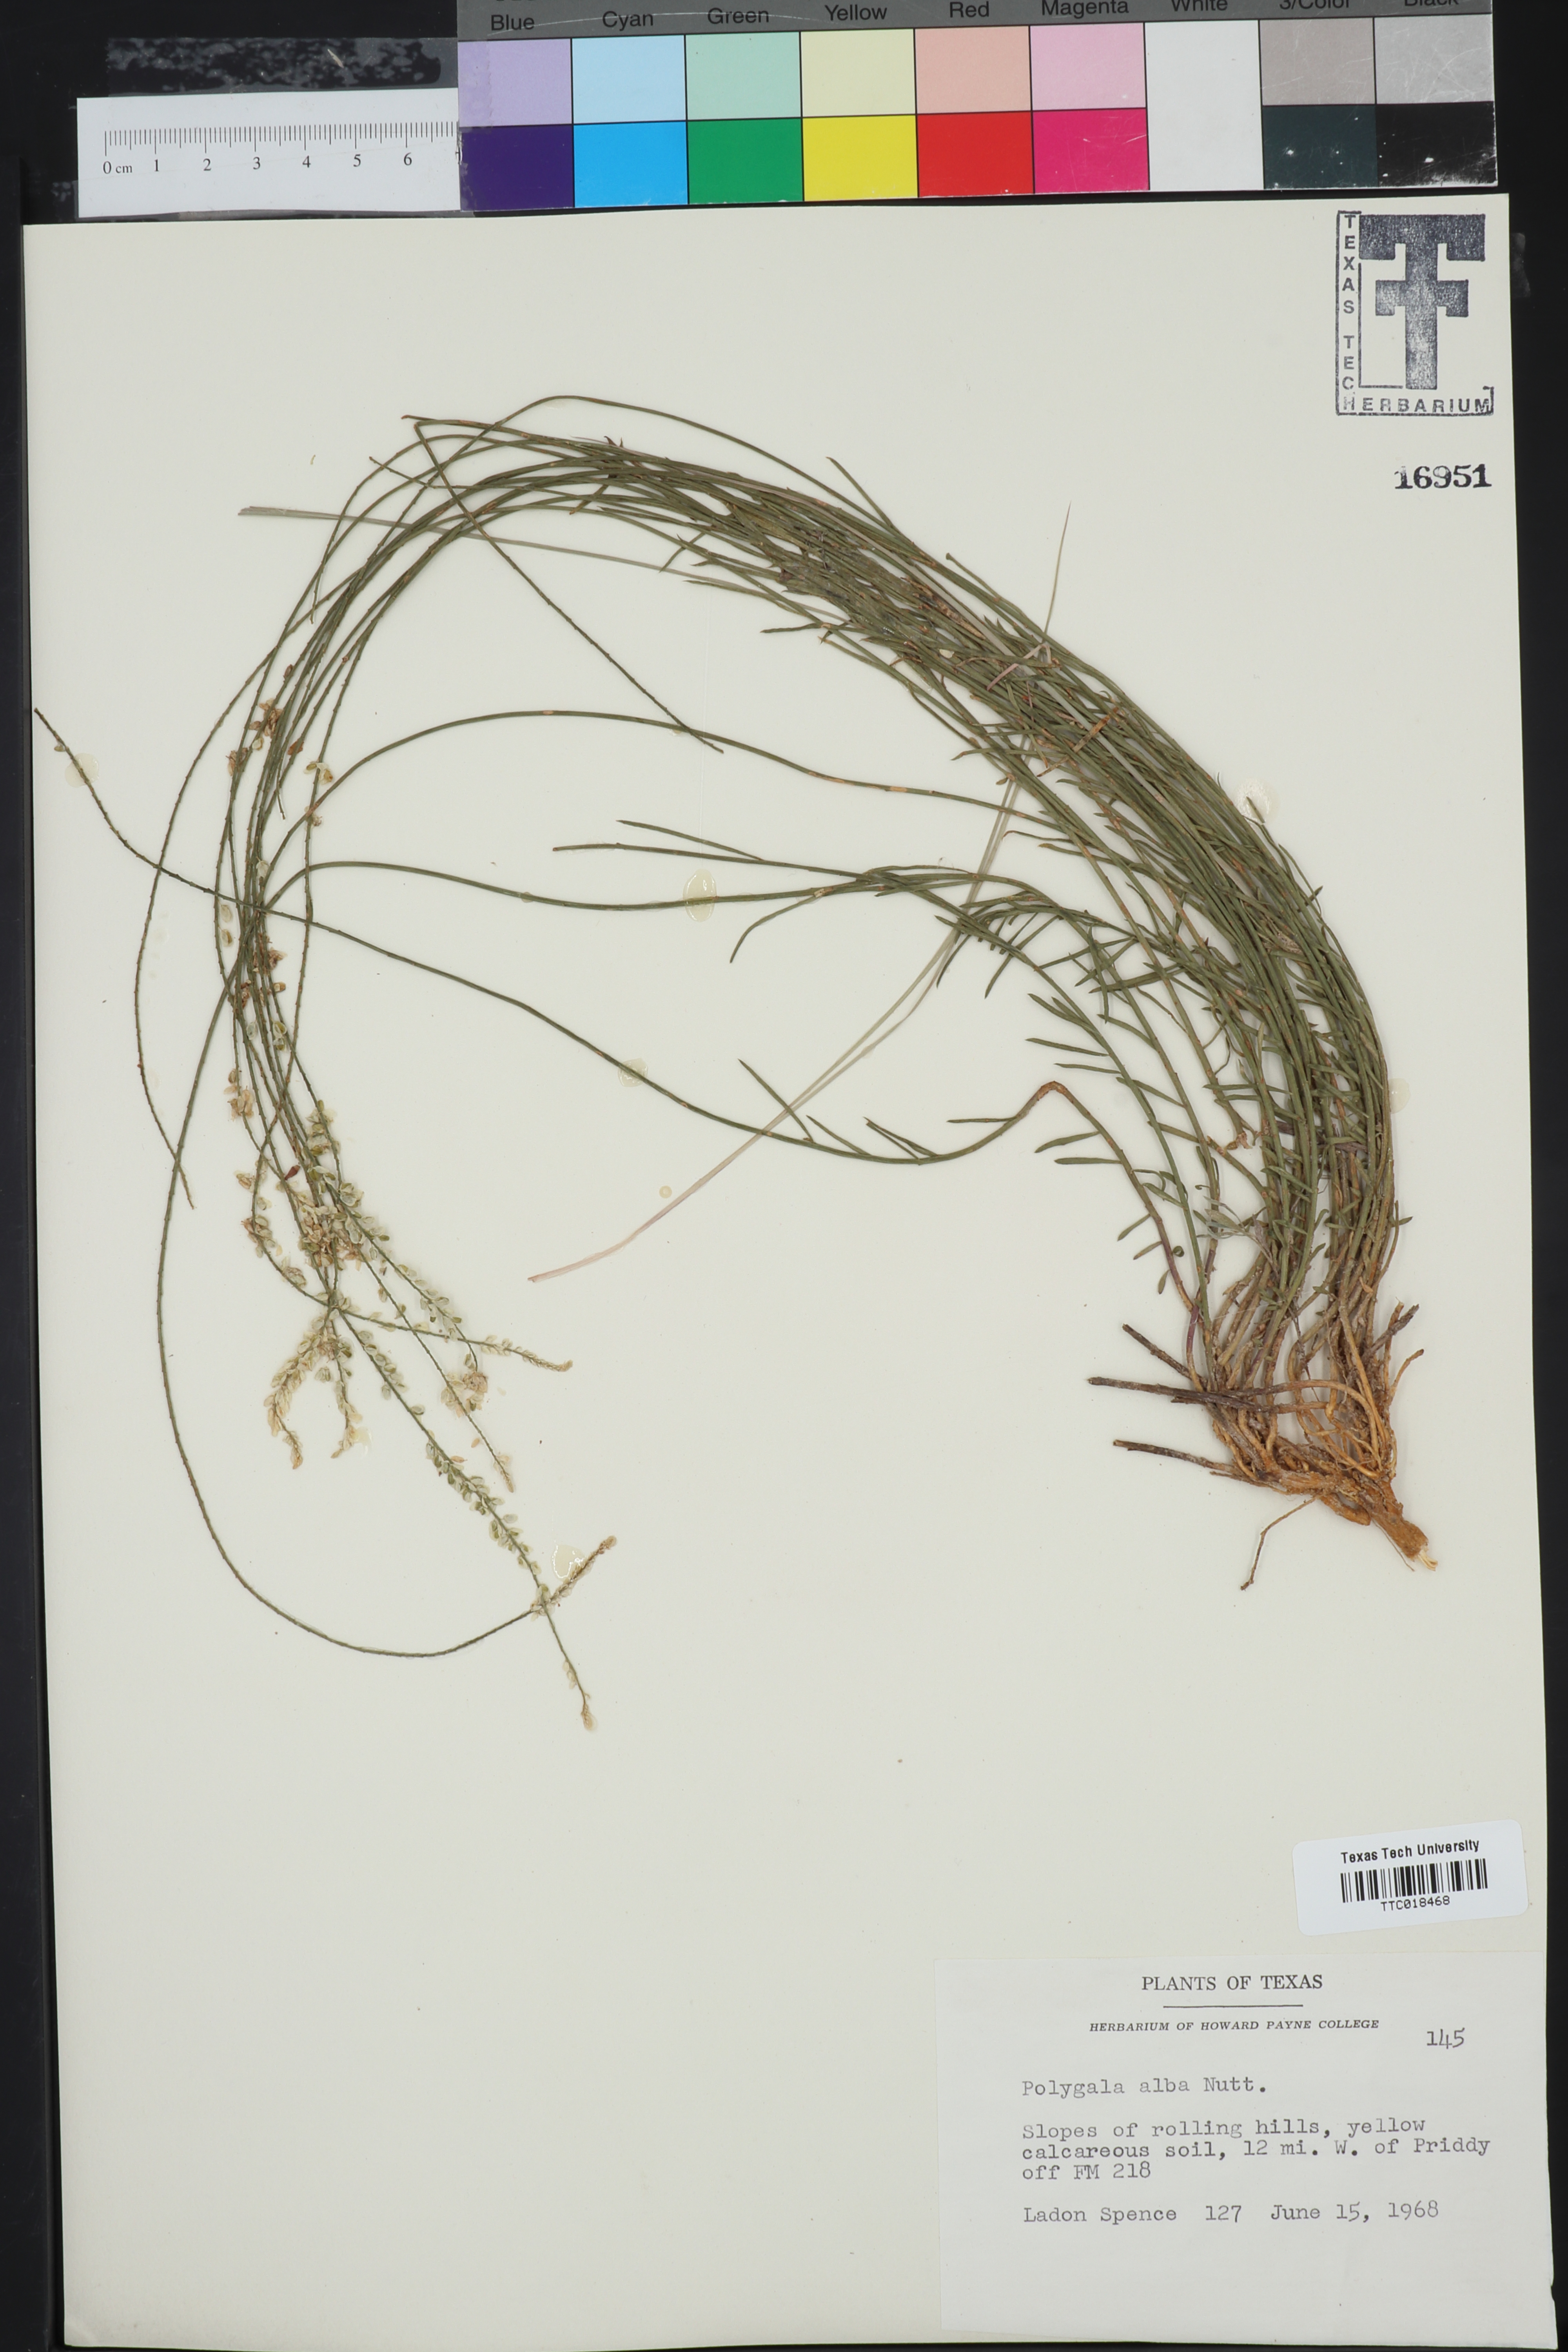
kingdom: Plantae
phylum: Tracheophyta
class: Magnoliopsida
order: Fabales
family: Polygalaceae
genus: Polygala
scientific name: Polygala alba
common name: White milkwort
